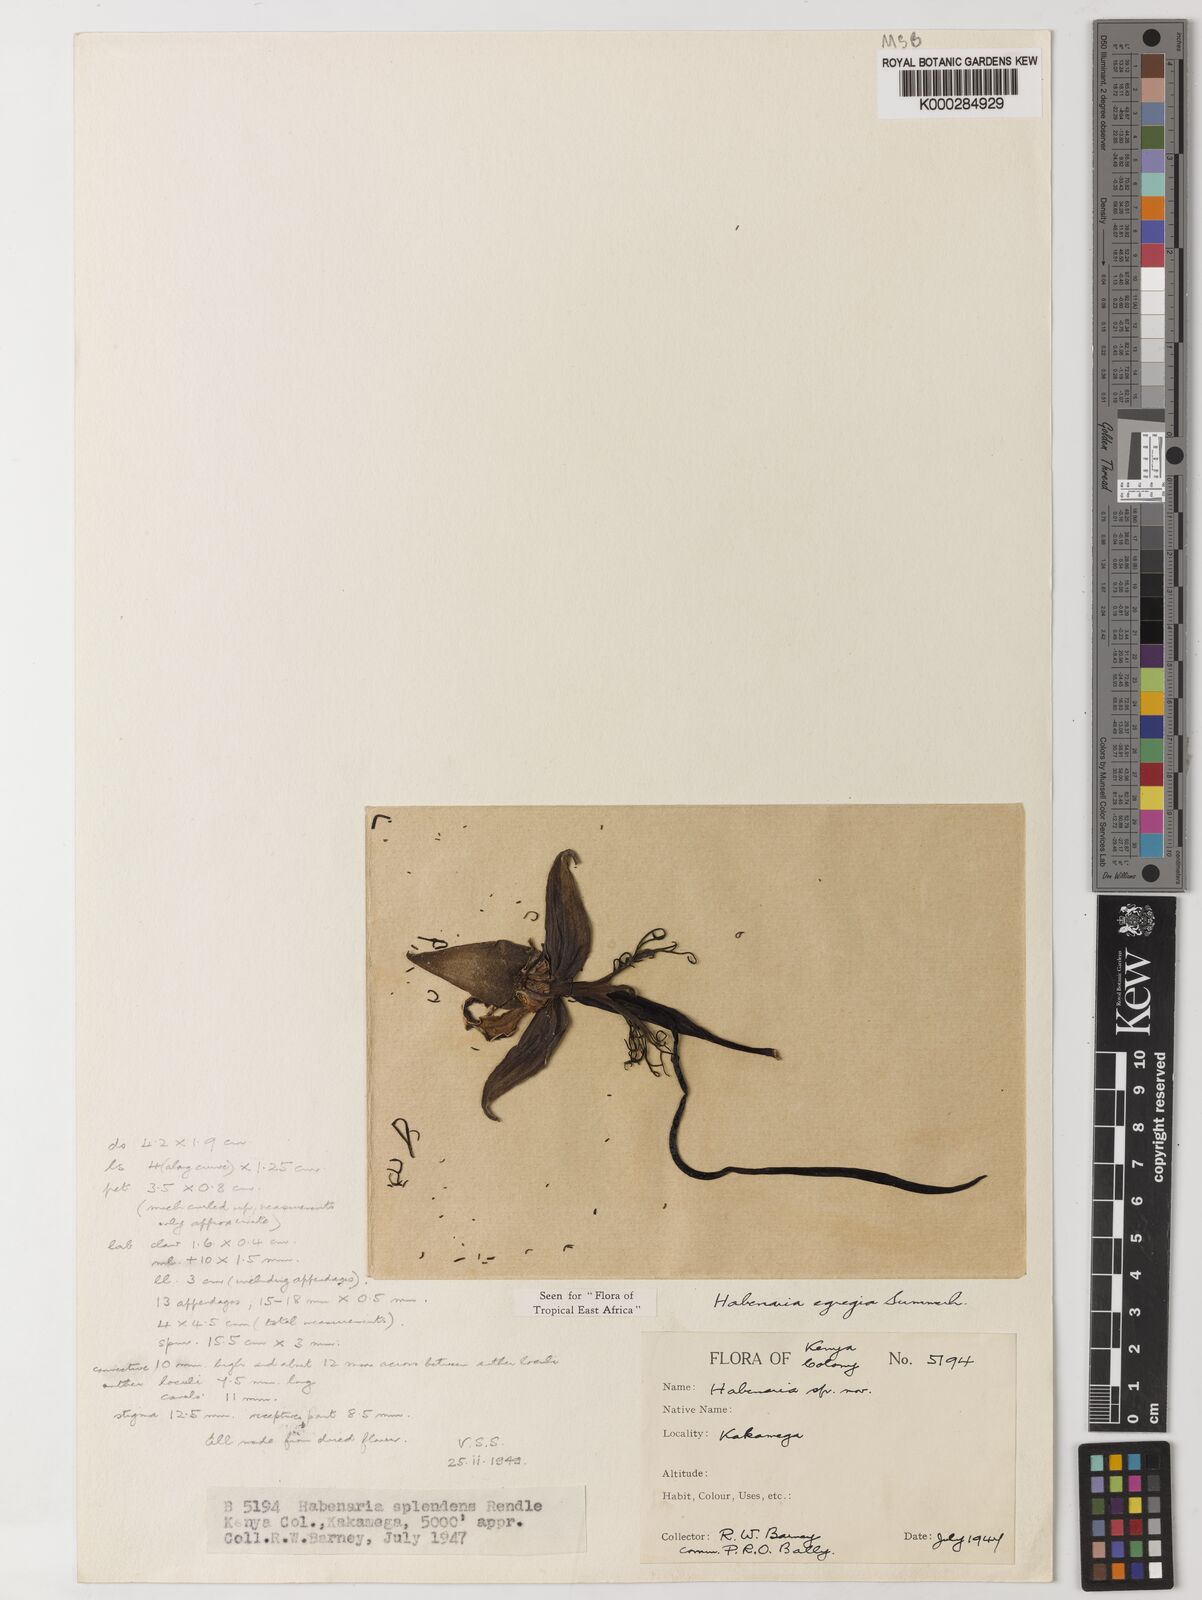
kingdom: Plantae
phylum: Tracheophyta
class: Liliopsida
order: Asparagales
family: Orchidaceae
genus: Habenaria
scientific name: Habenaria egregia
